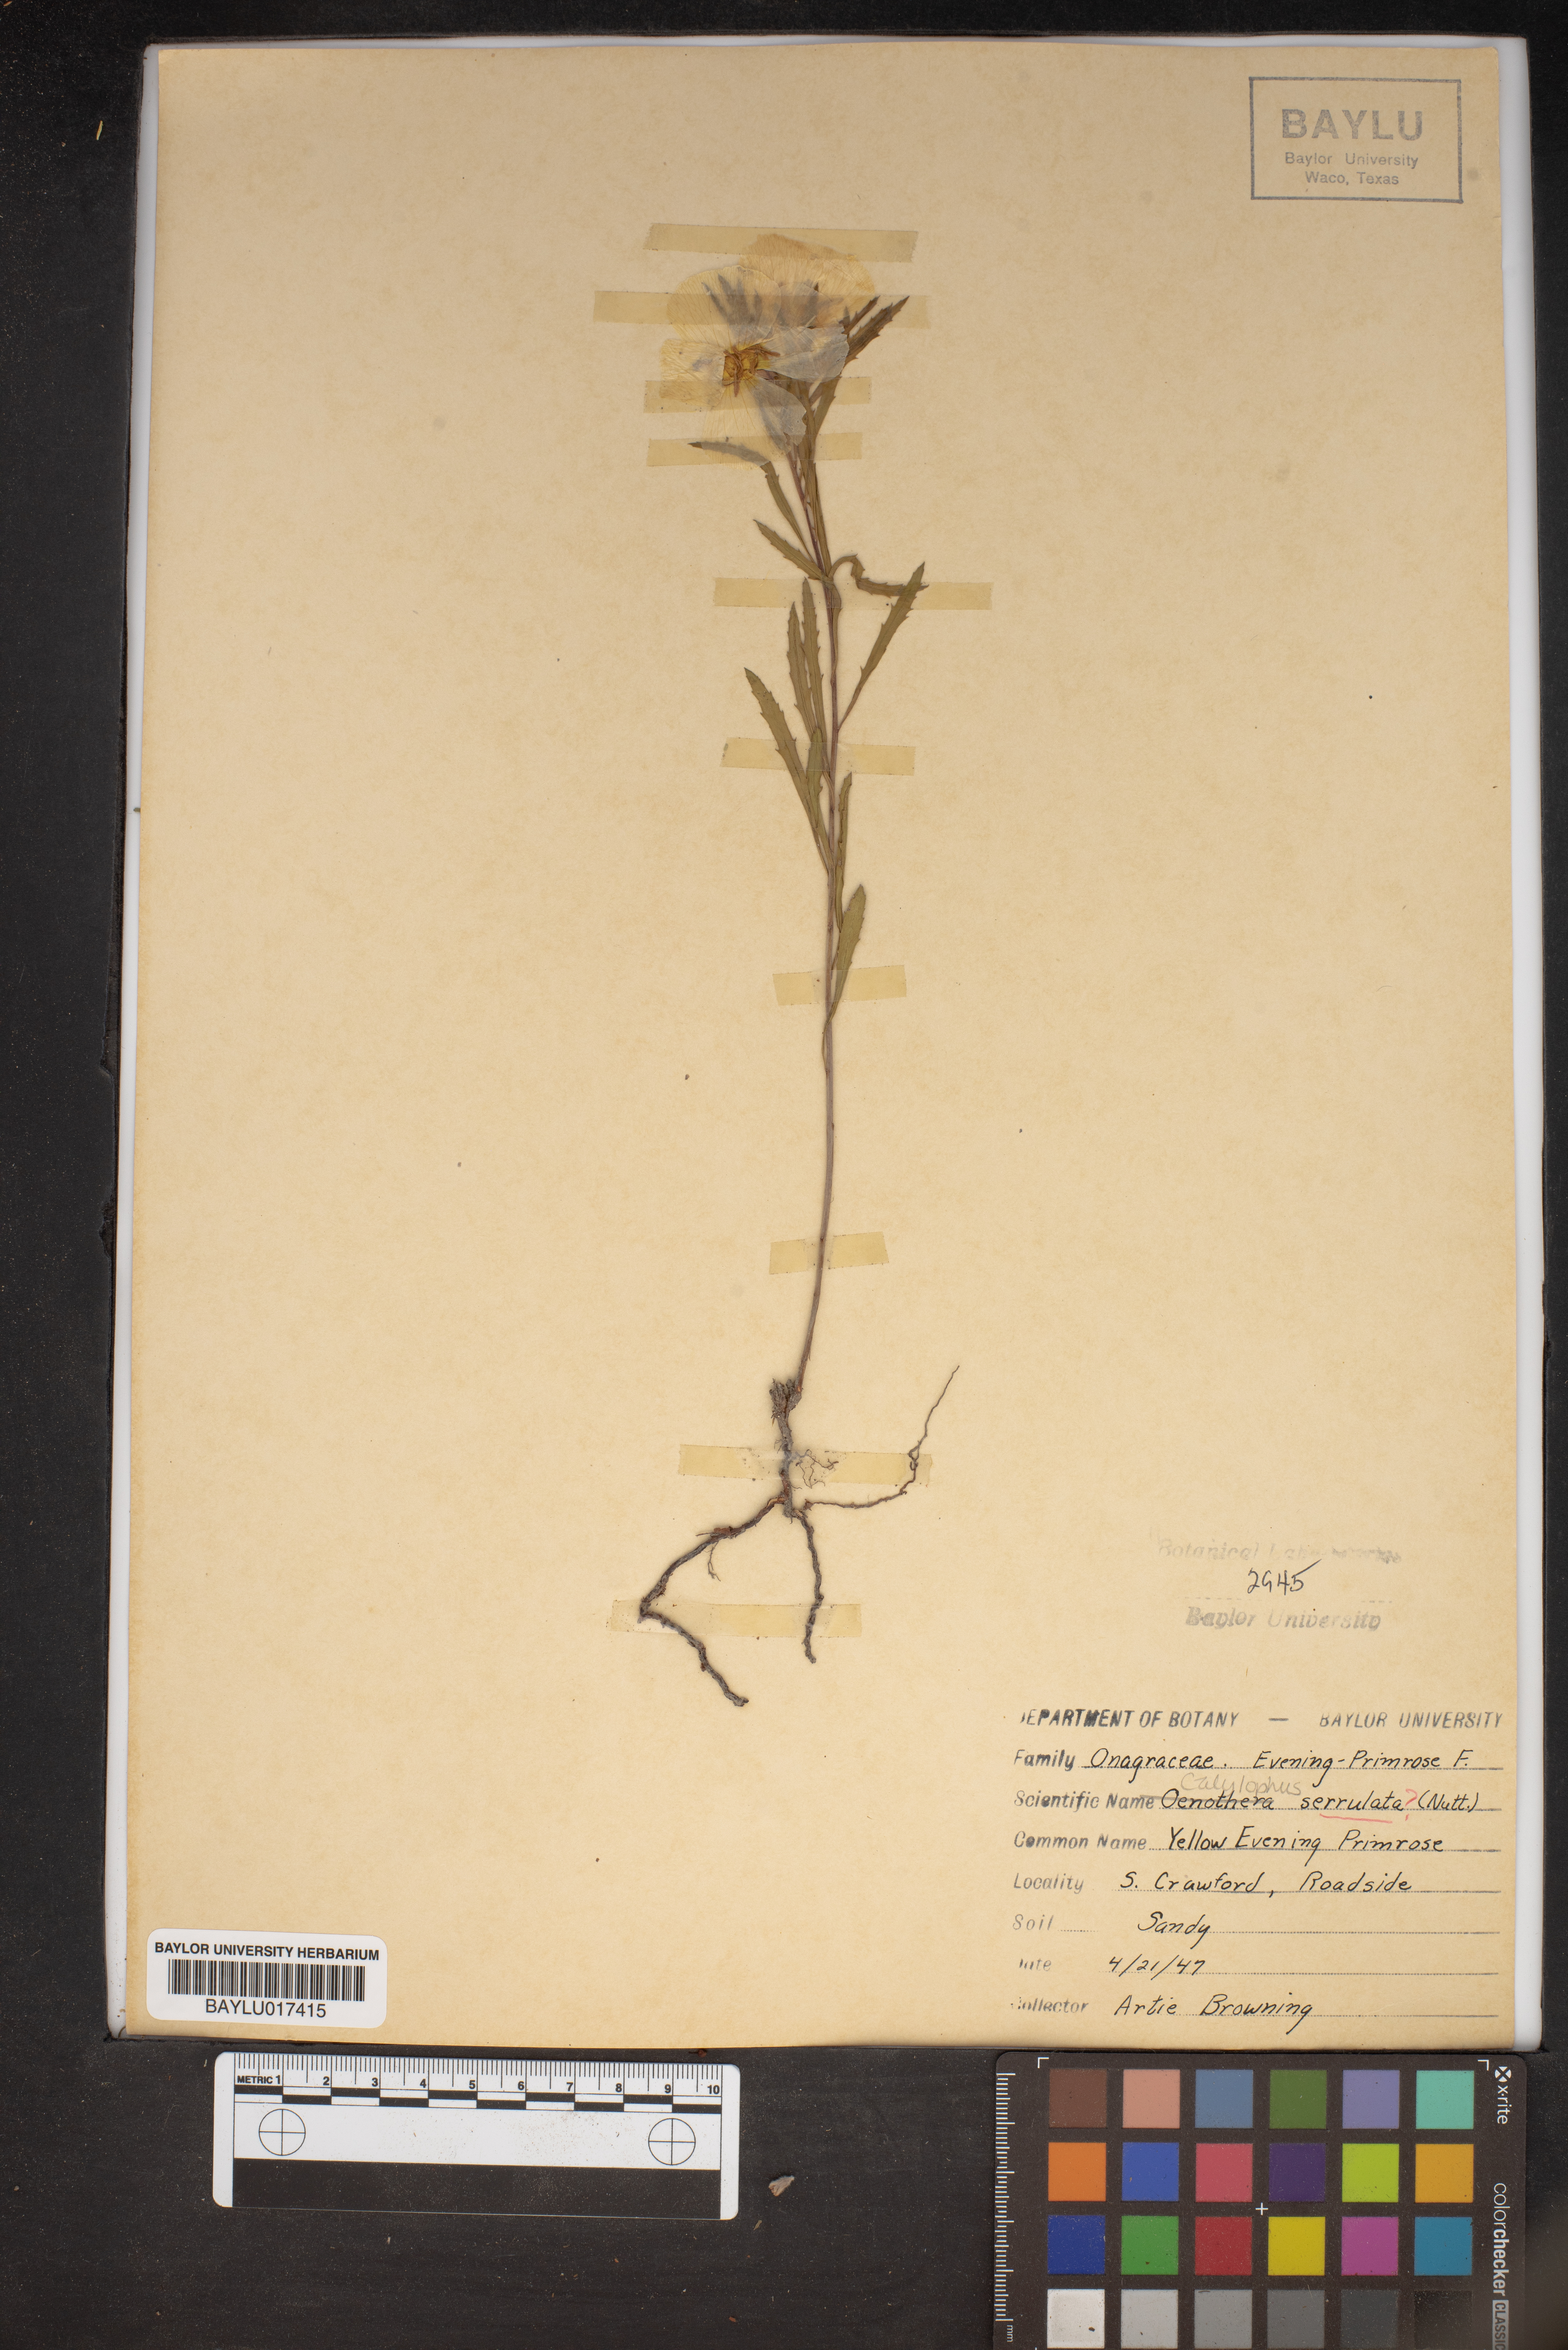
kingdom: Plantae
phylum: Tracheophyta
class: Magnoliopsida
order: Myrtales
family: Onagraceae
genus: Oenothera
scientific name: Oenothera serrulata
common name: Half-shrub calylophus
